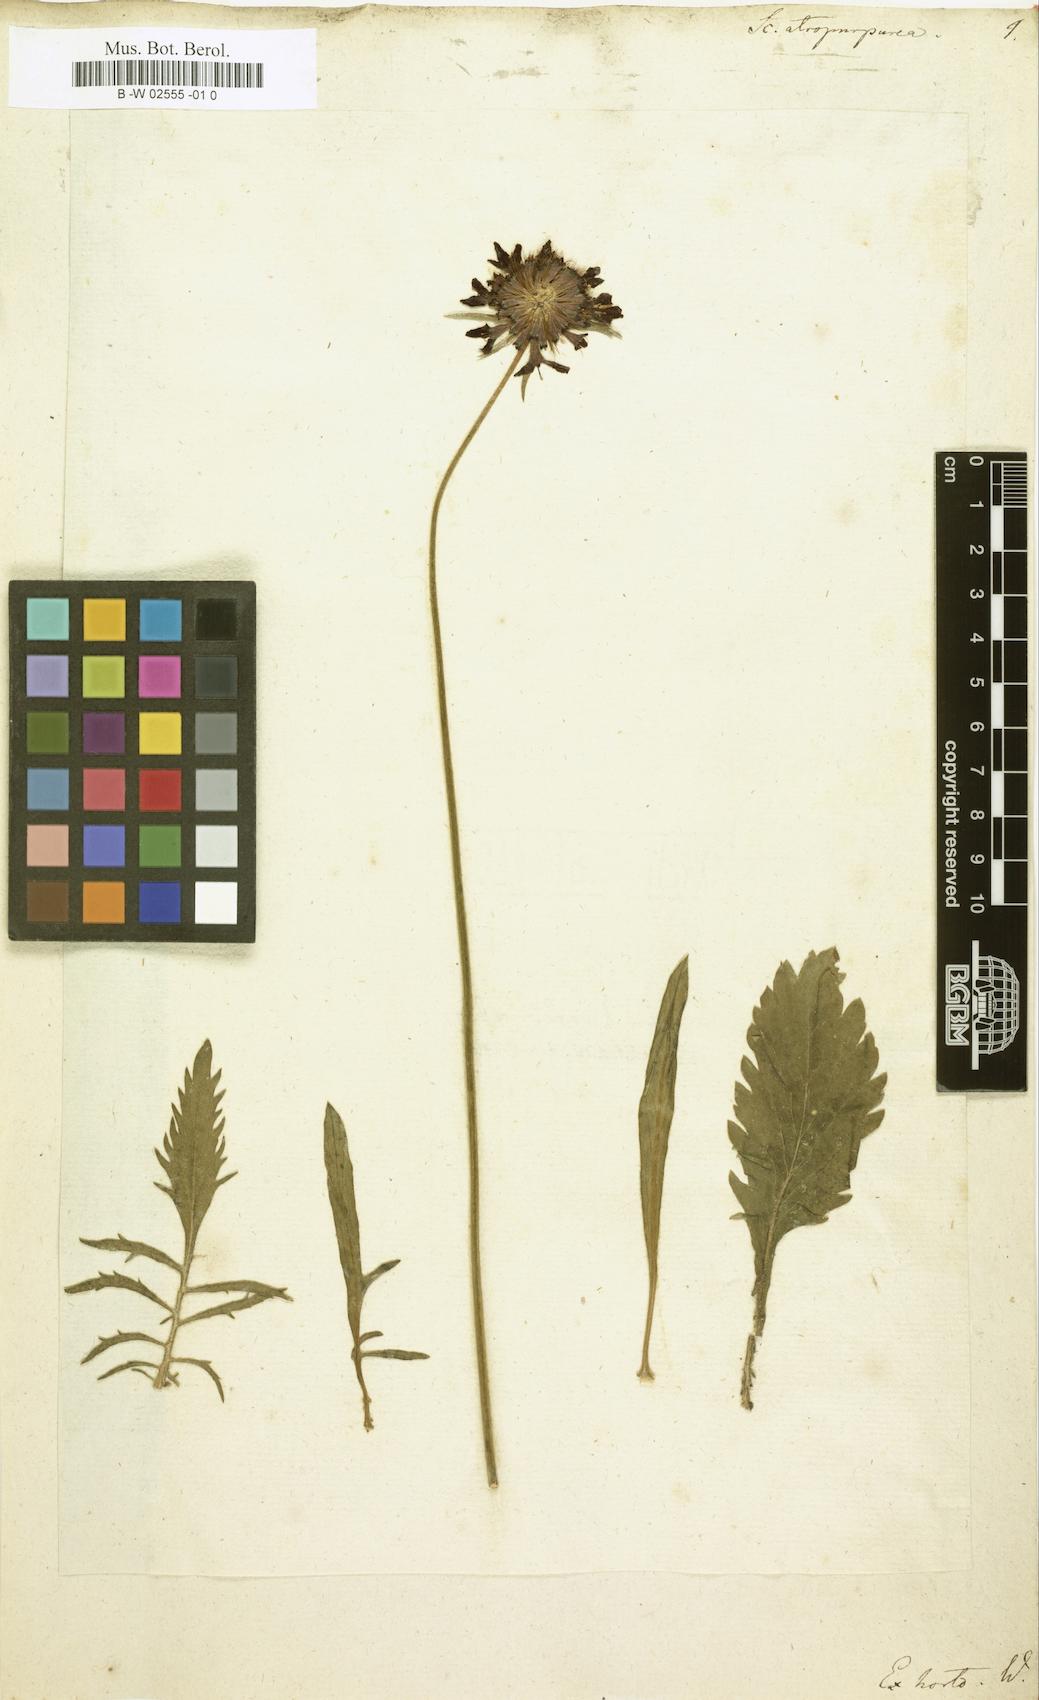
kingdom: Plantae
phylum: Tracheophyta
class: Magnoliopsida
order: Dipsacales
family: Caprifoliaceae
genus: Sixalix
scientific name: Sixalix atropurpurea
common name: Sweet scabious
